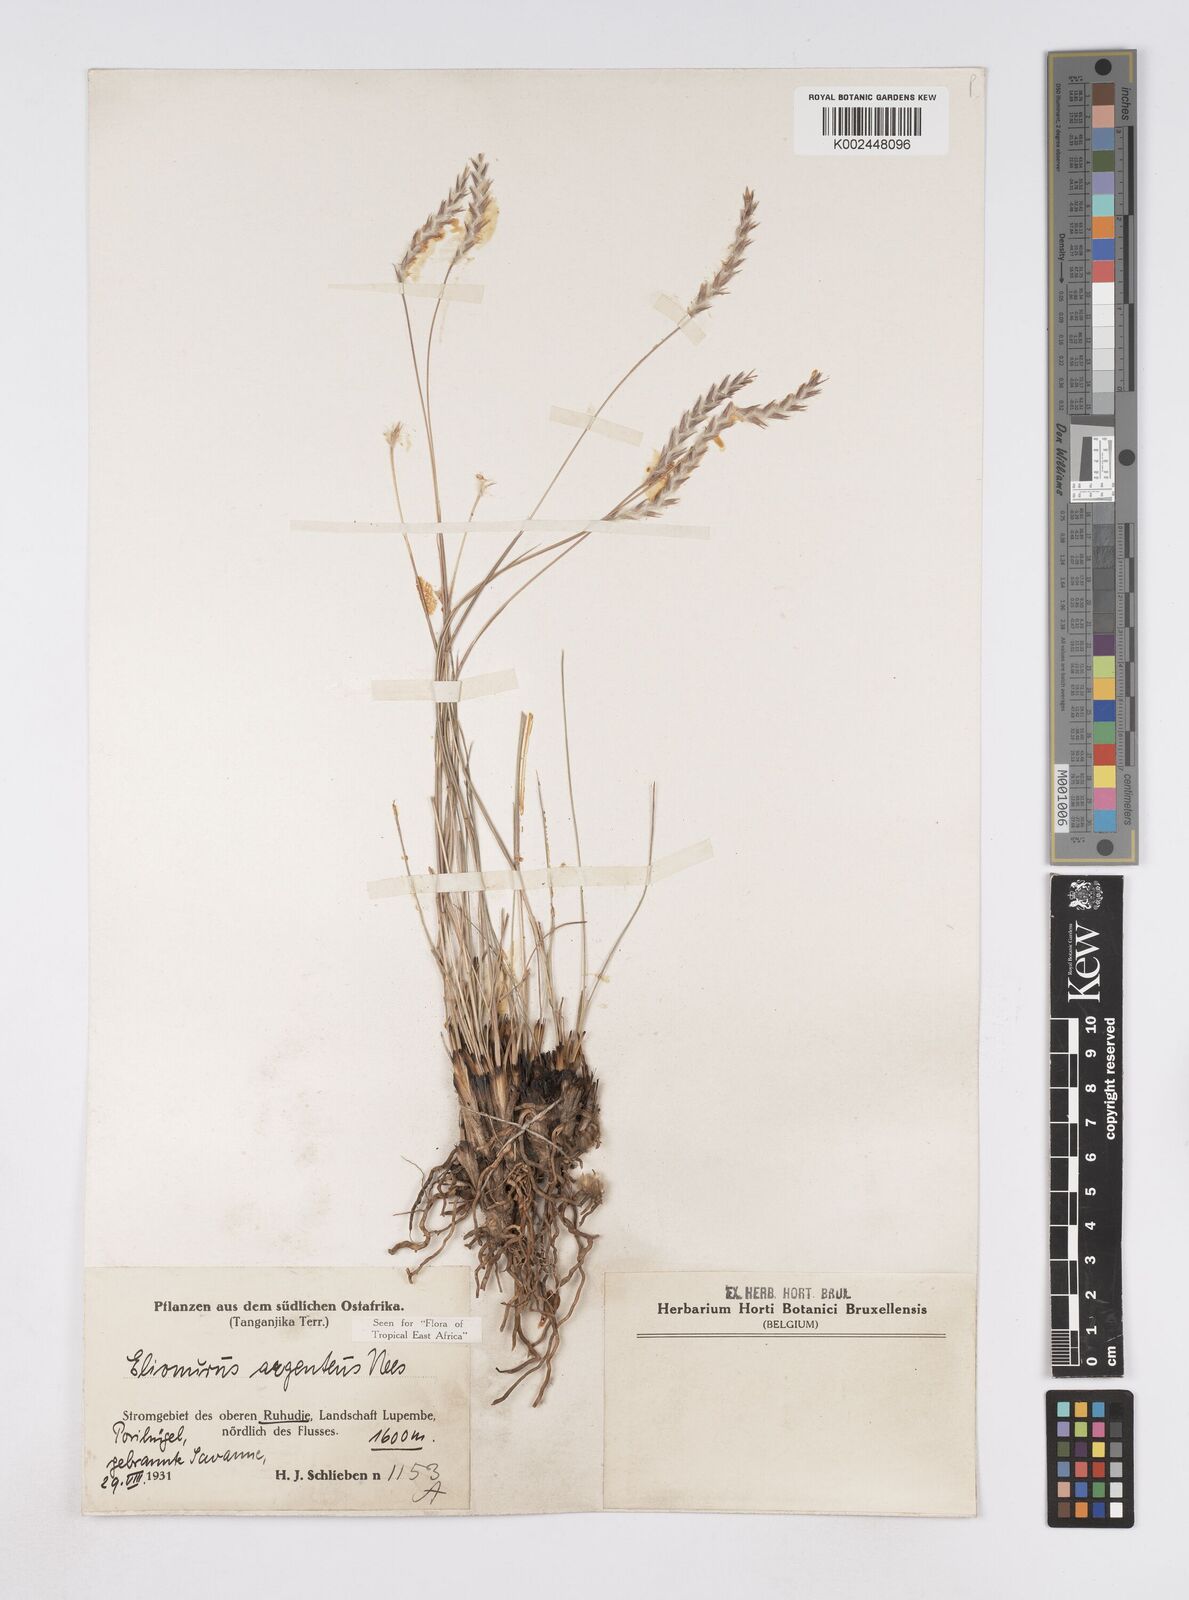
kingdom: Plantae
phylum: Tracheophyta
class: Liliopsida
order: Poales
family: Poaceae
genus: Elionurus
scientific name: Elionurus
